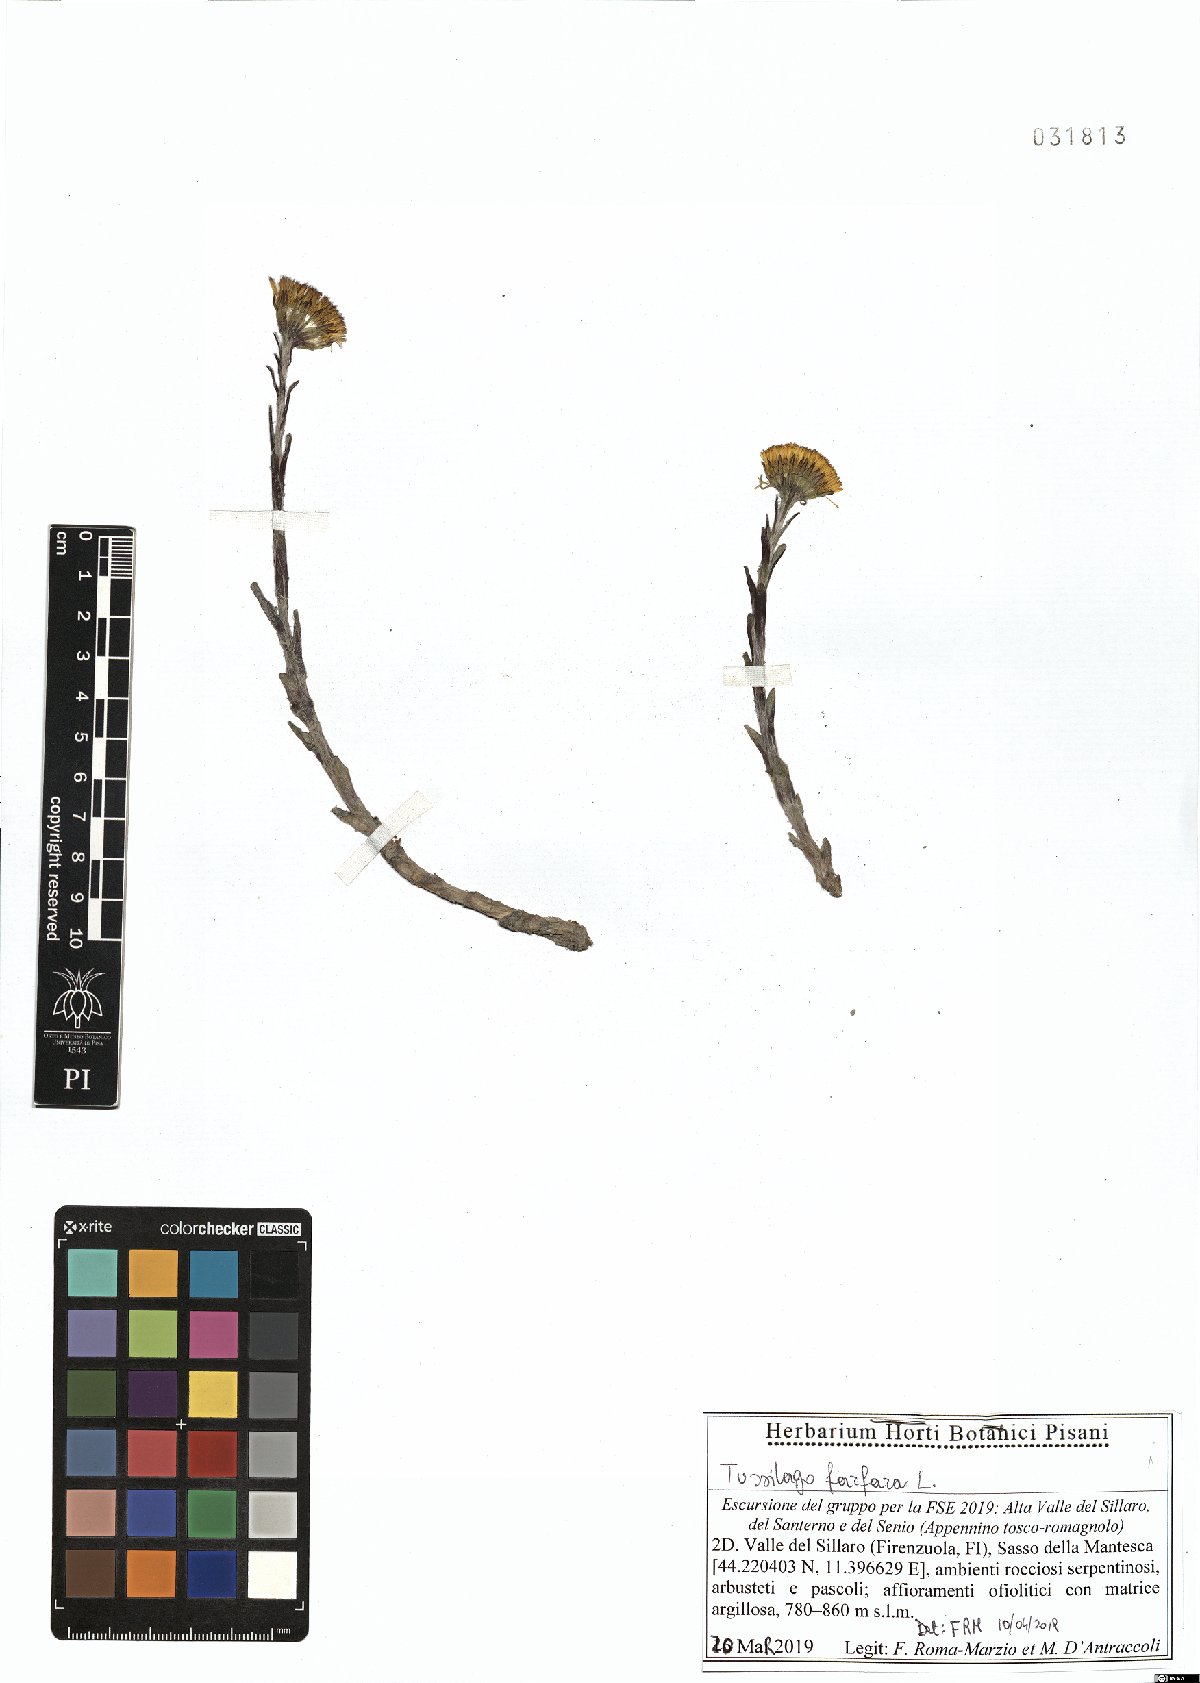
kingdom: Plantae
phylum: Tracheophyta
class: Magnoliopsida
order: Asterales
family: Asteraceae
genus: Tussilago
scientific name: Tussilago farfara
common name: Coltsfoot
